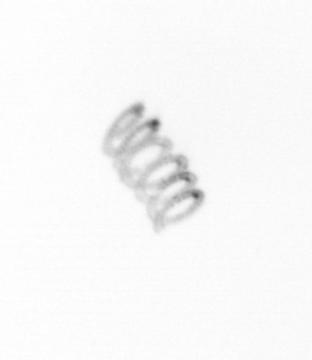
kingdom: Chromista
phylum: Ochrophyta
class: Bacillariophyceae
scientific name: Bacillariophyceae
